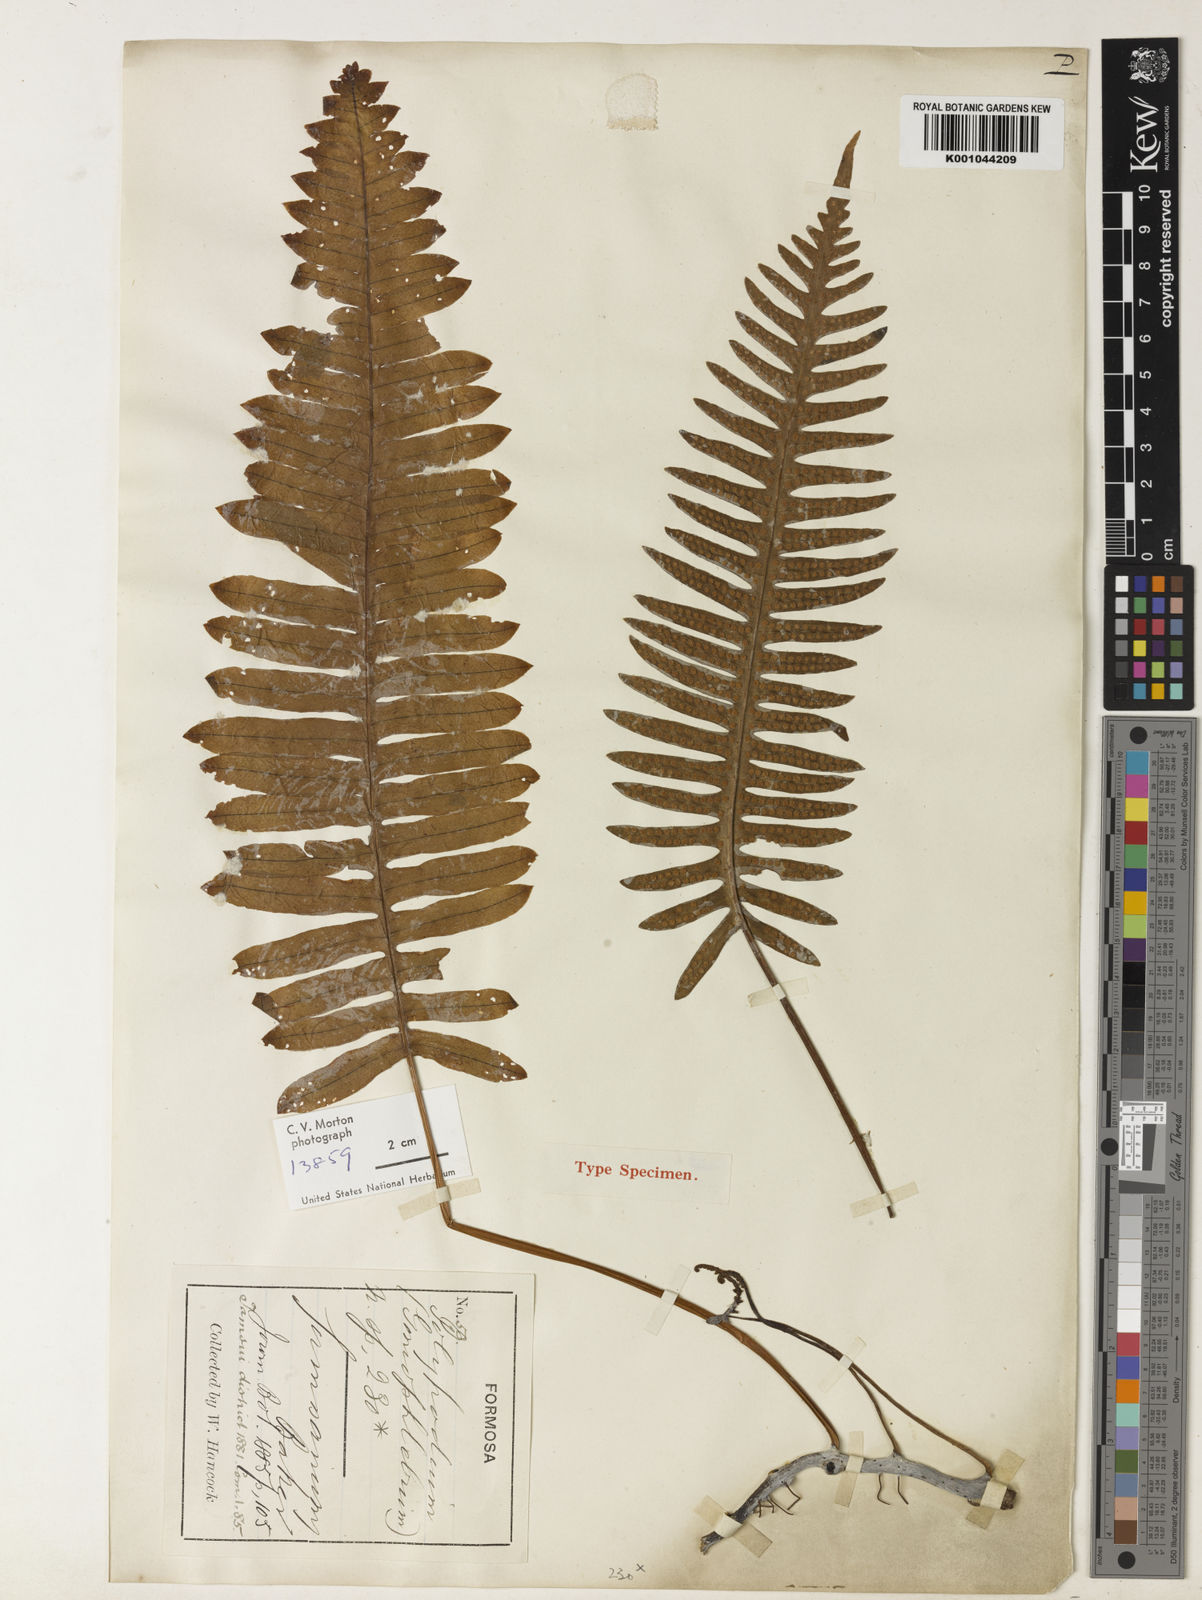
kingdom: Plantae
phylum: Tracheophyta
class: Polypodiopsida
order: Polypodiales
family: Polypodiaceae
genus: Goniophlebium
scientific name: Goniophlebium formosanum
